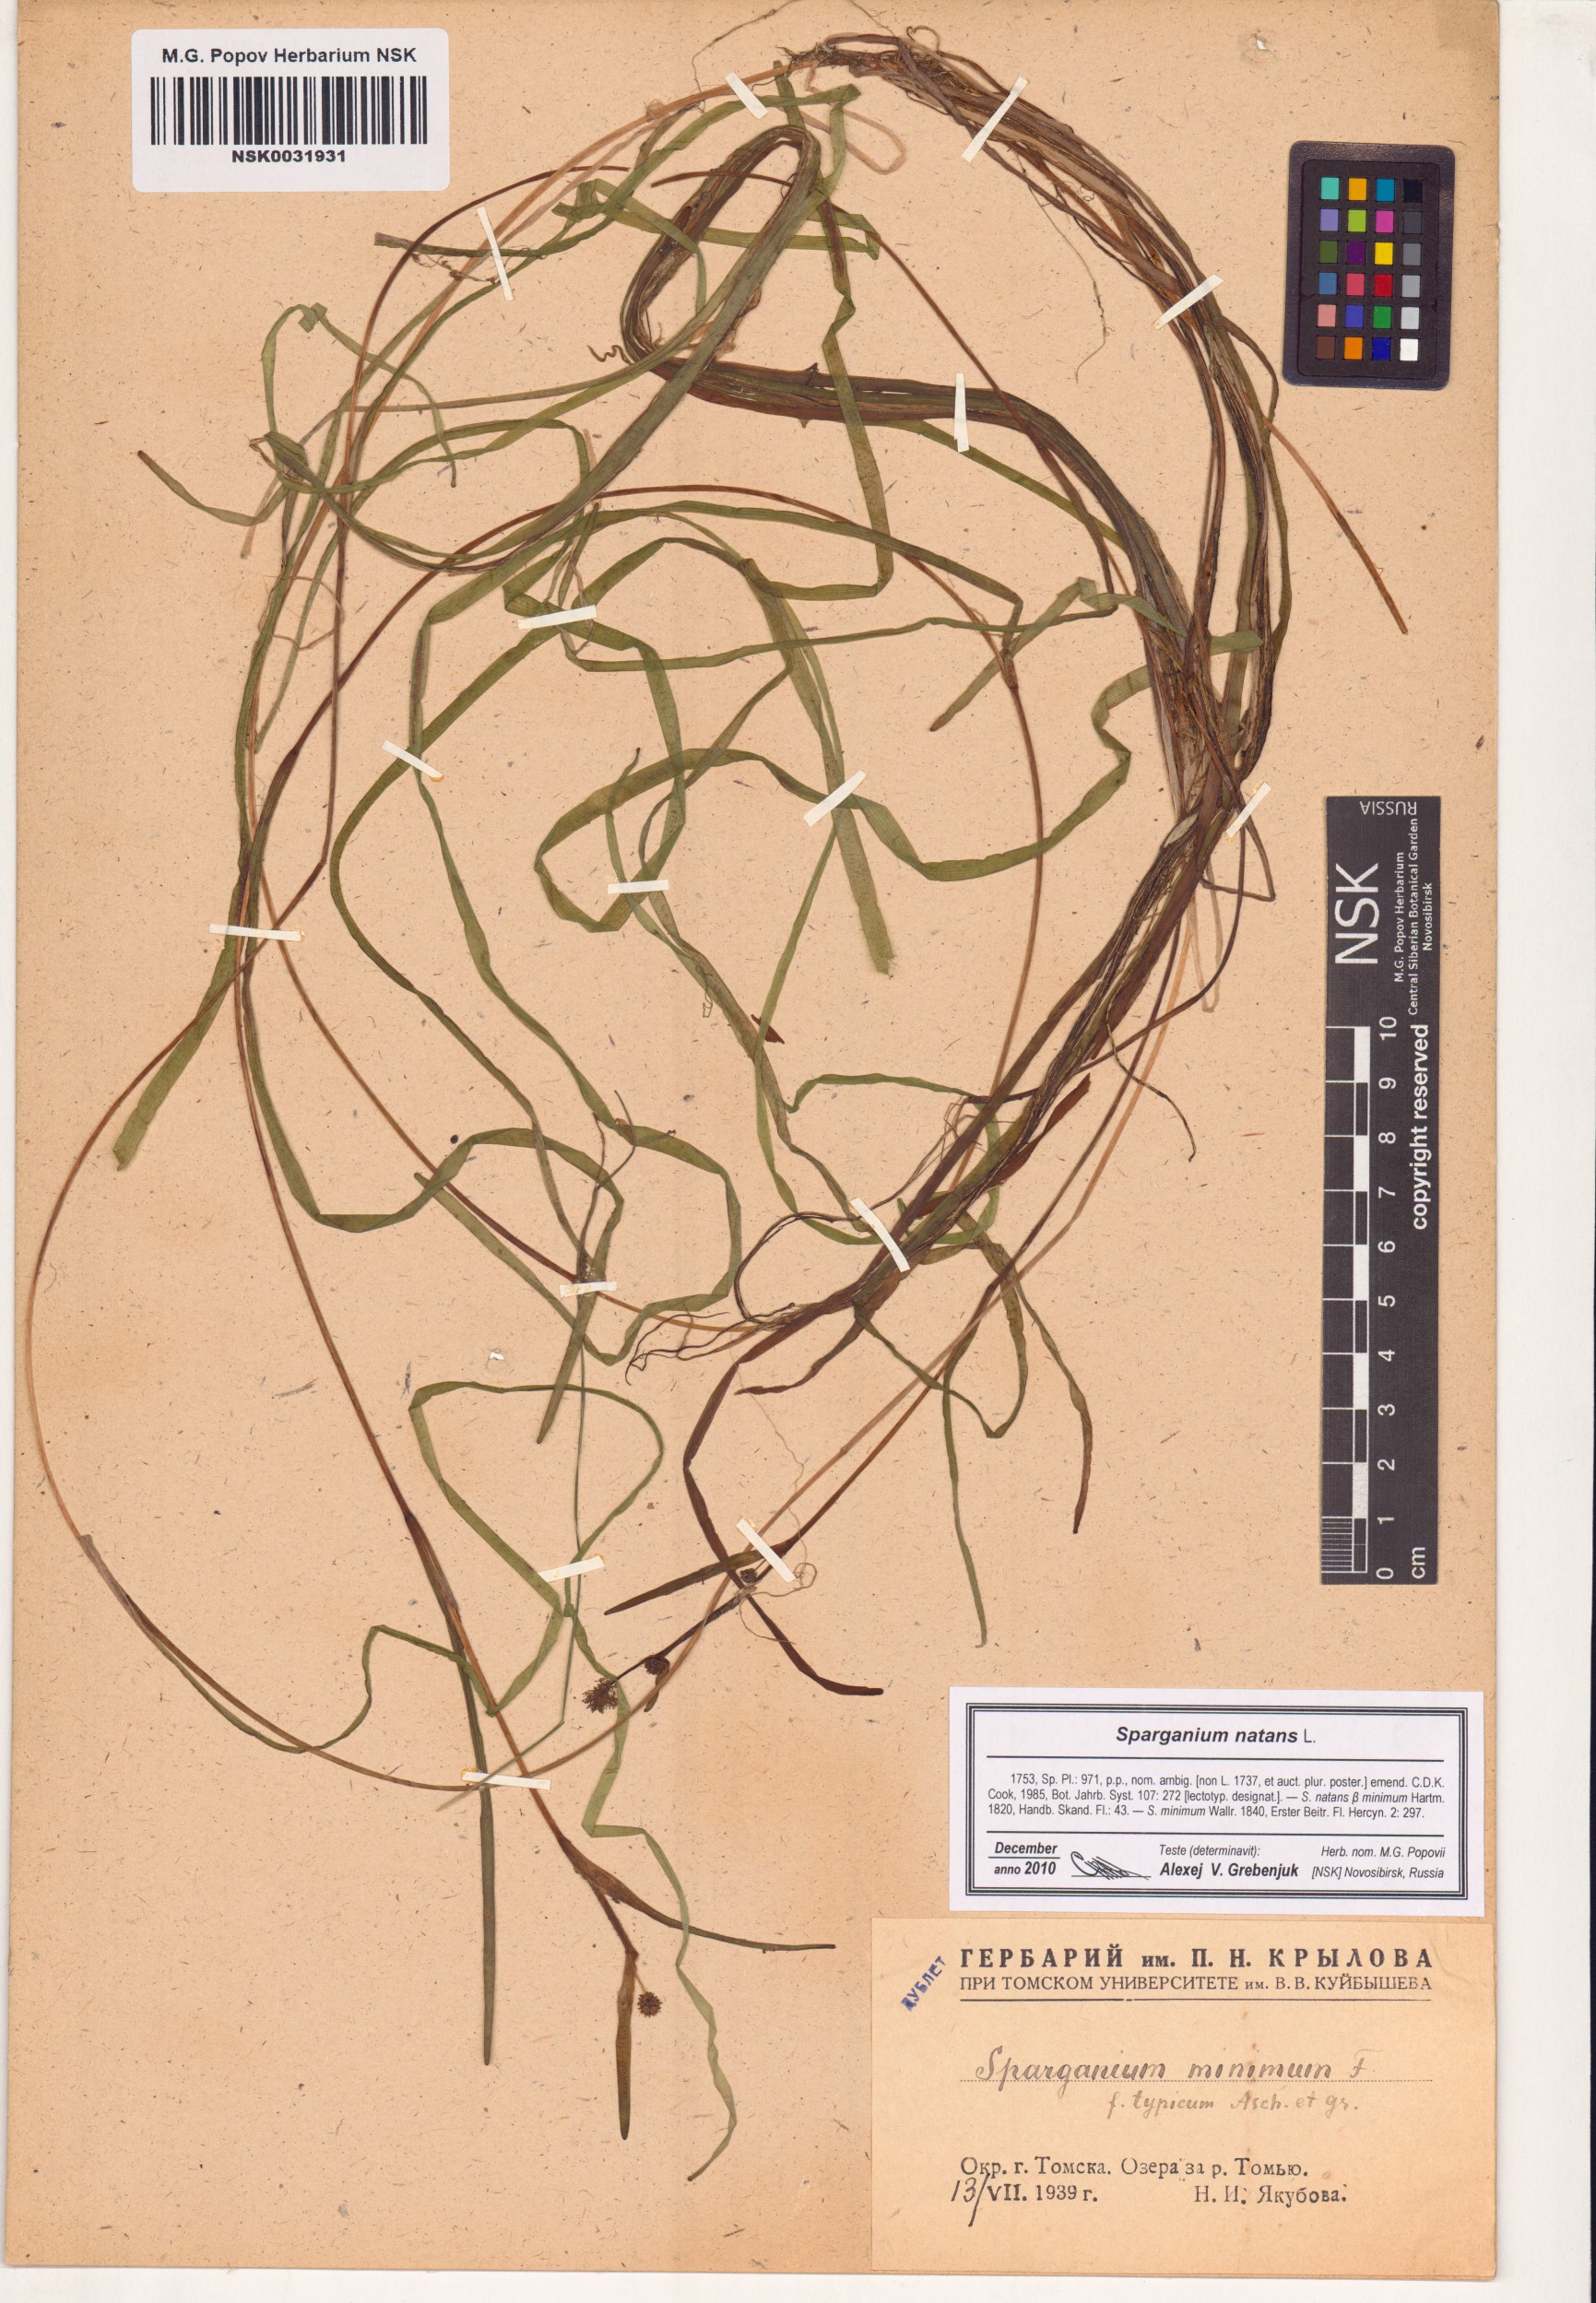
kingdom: Plantae
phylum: Tracheophyta
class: Liliopsida
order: Poales
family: Typhaceae
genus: Sparganium
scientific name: Sparganium natans
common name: Least bur-reed
